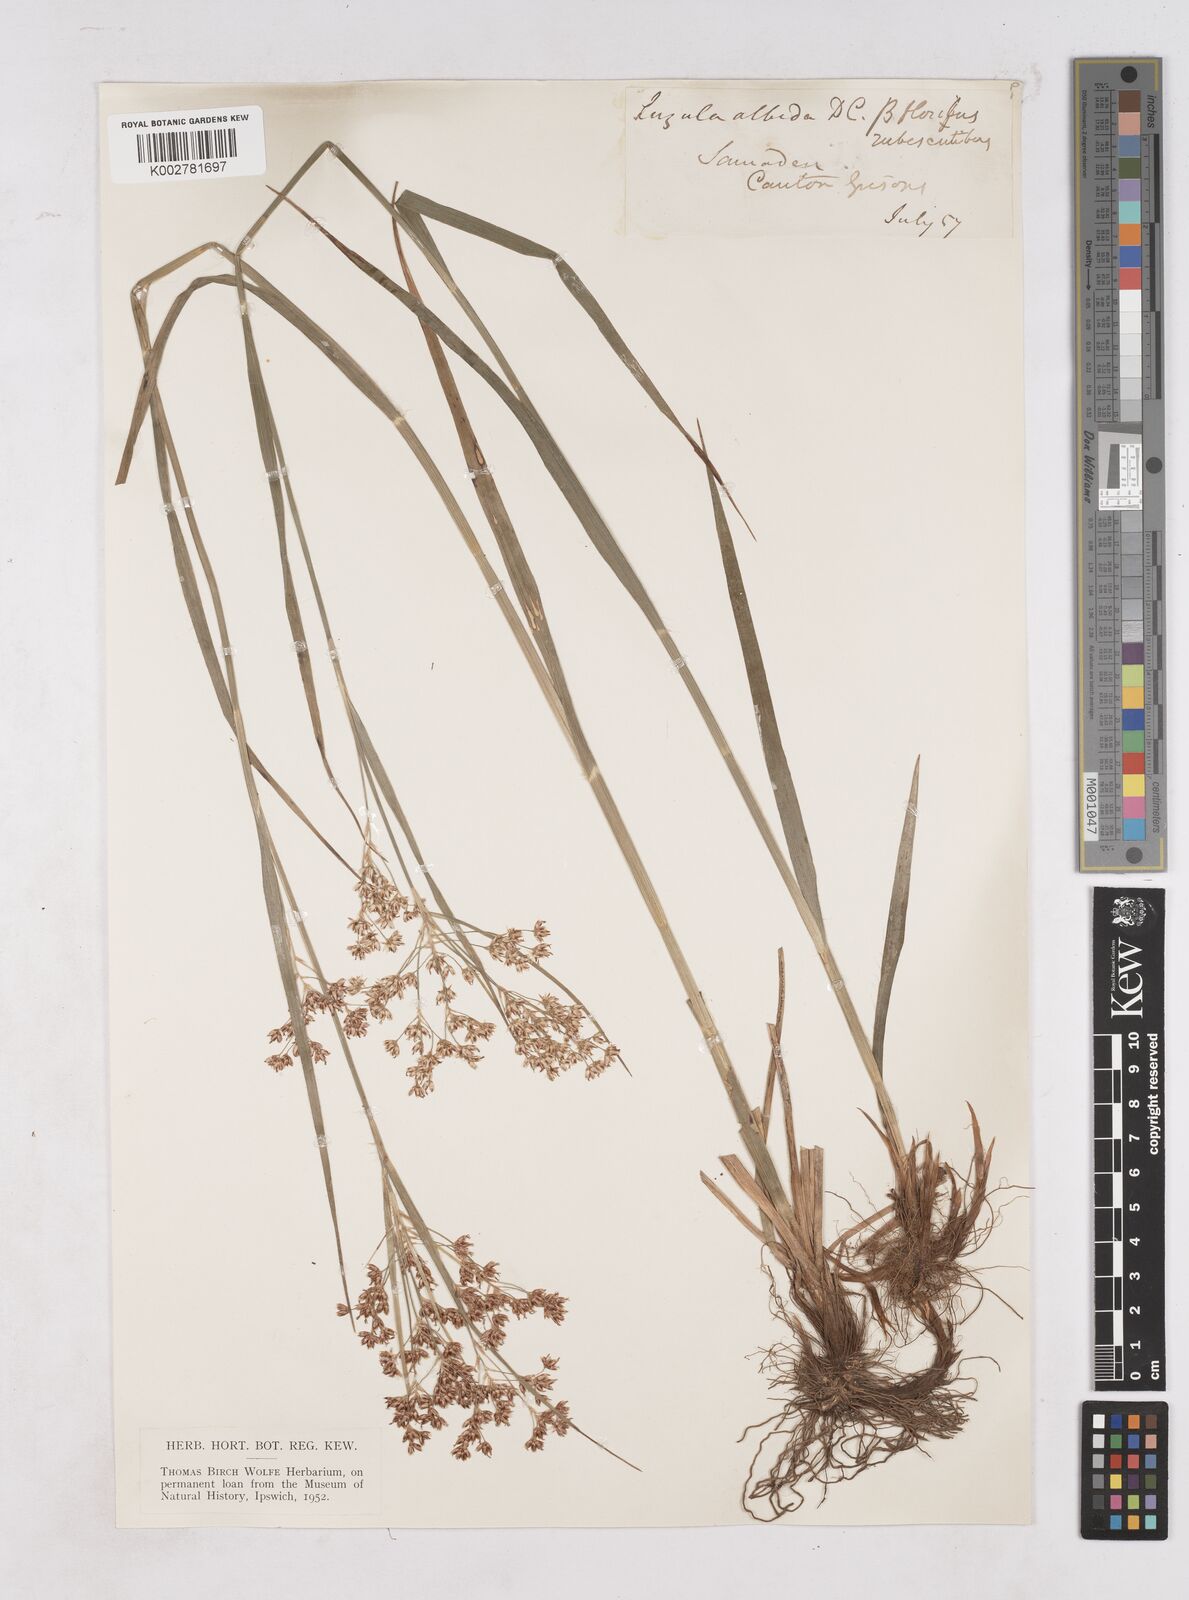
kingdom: Plantae
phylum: Tracheophyta
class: Liliopsida
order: Poales
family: Juncaceae
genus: Luzula
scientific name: Luzula luzuloides
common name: White wood-rush
